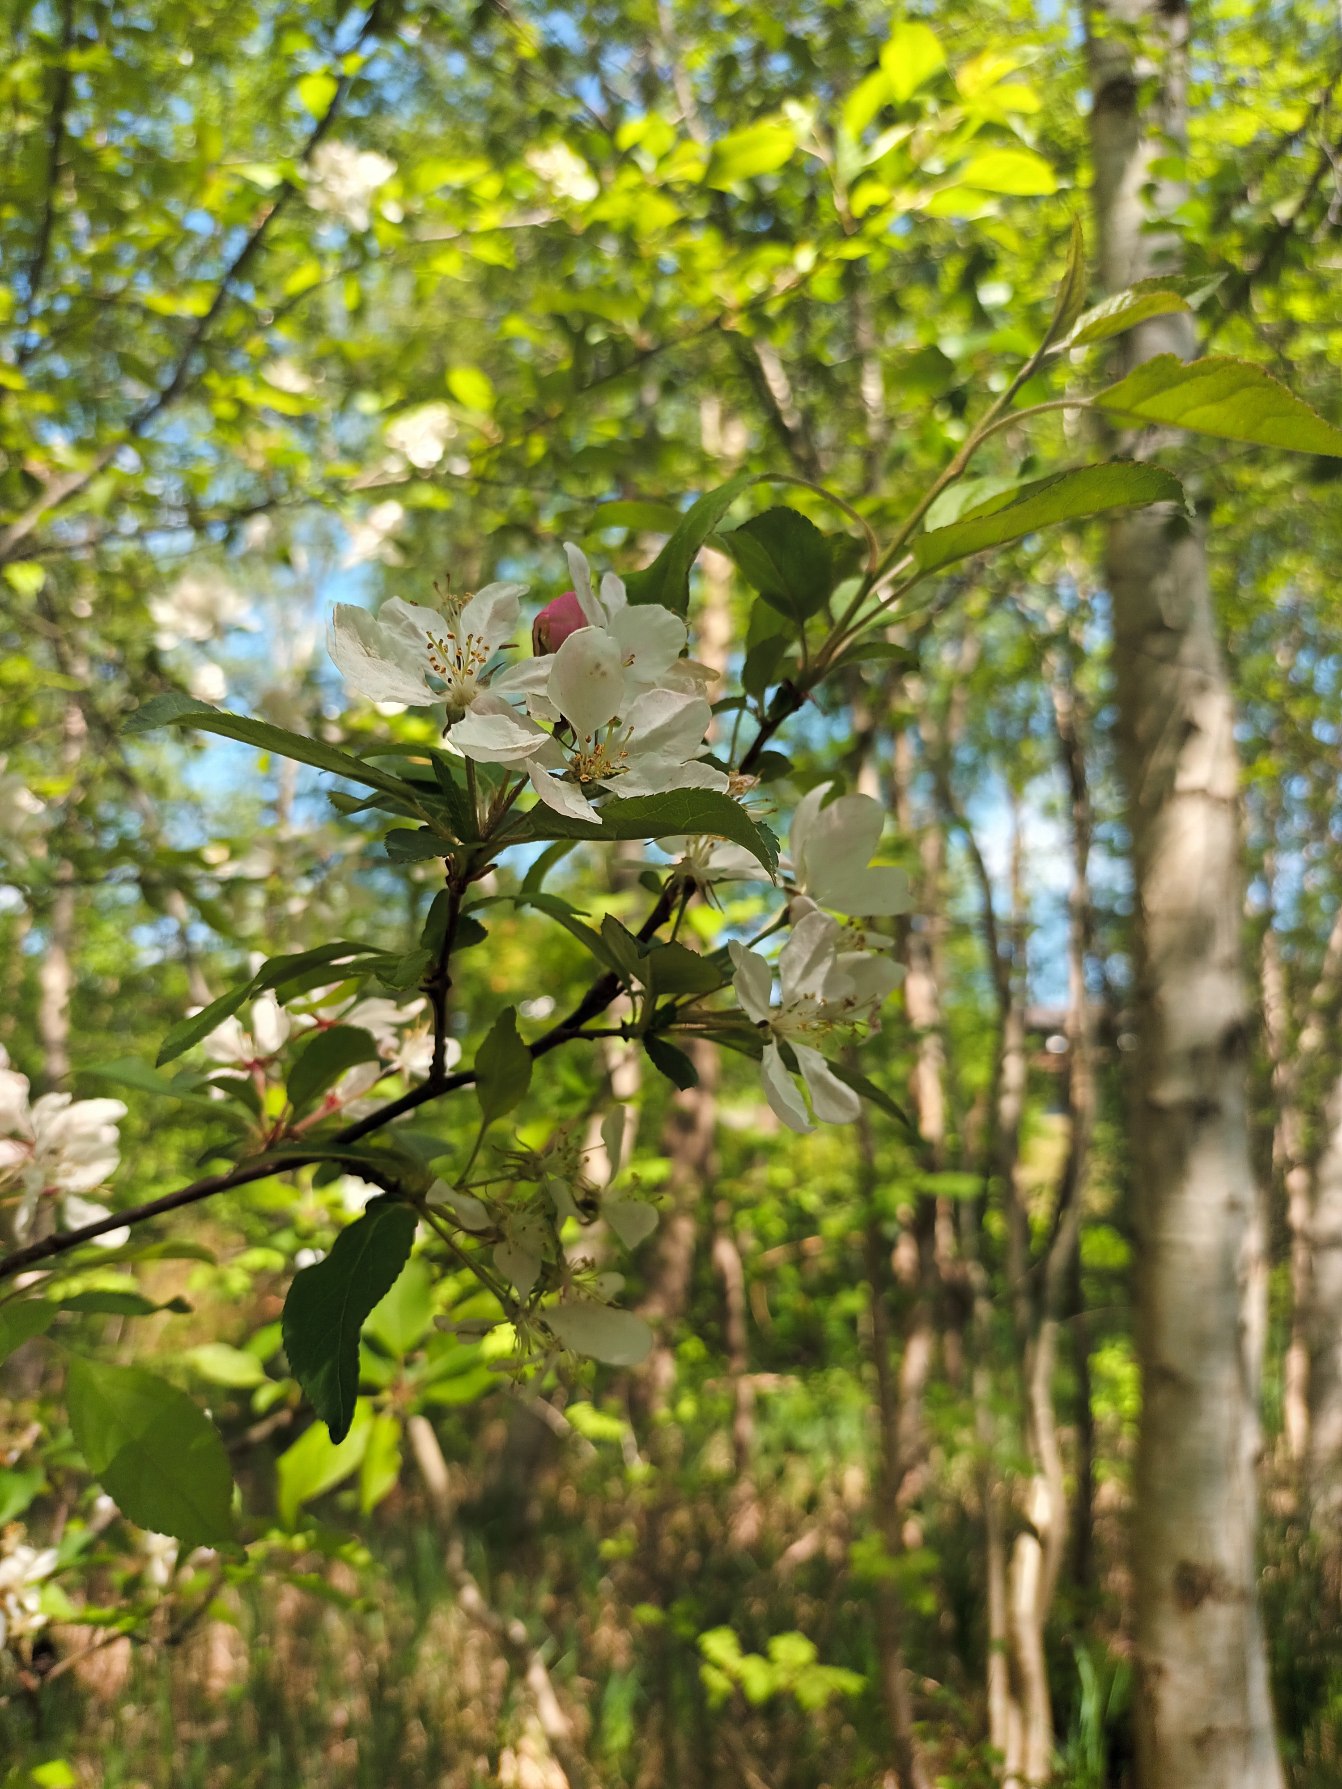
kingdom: Plantae
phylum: Tracheophyta
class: Magnoliopsida
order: Rosales
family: Rosaceae
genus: Malus
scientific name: Malus floribunda
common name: Japansk paradisæble
